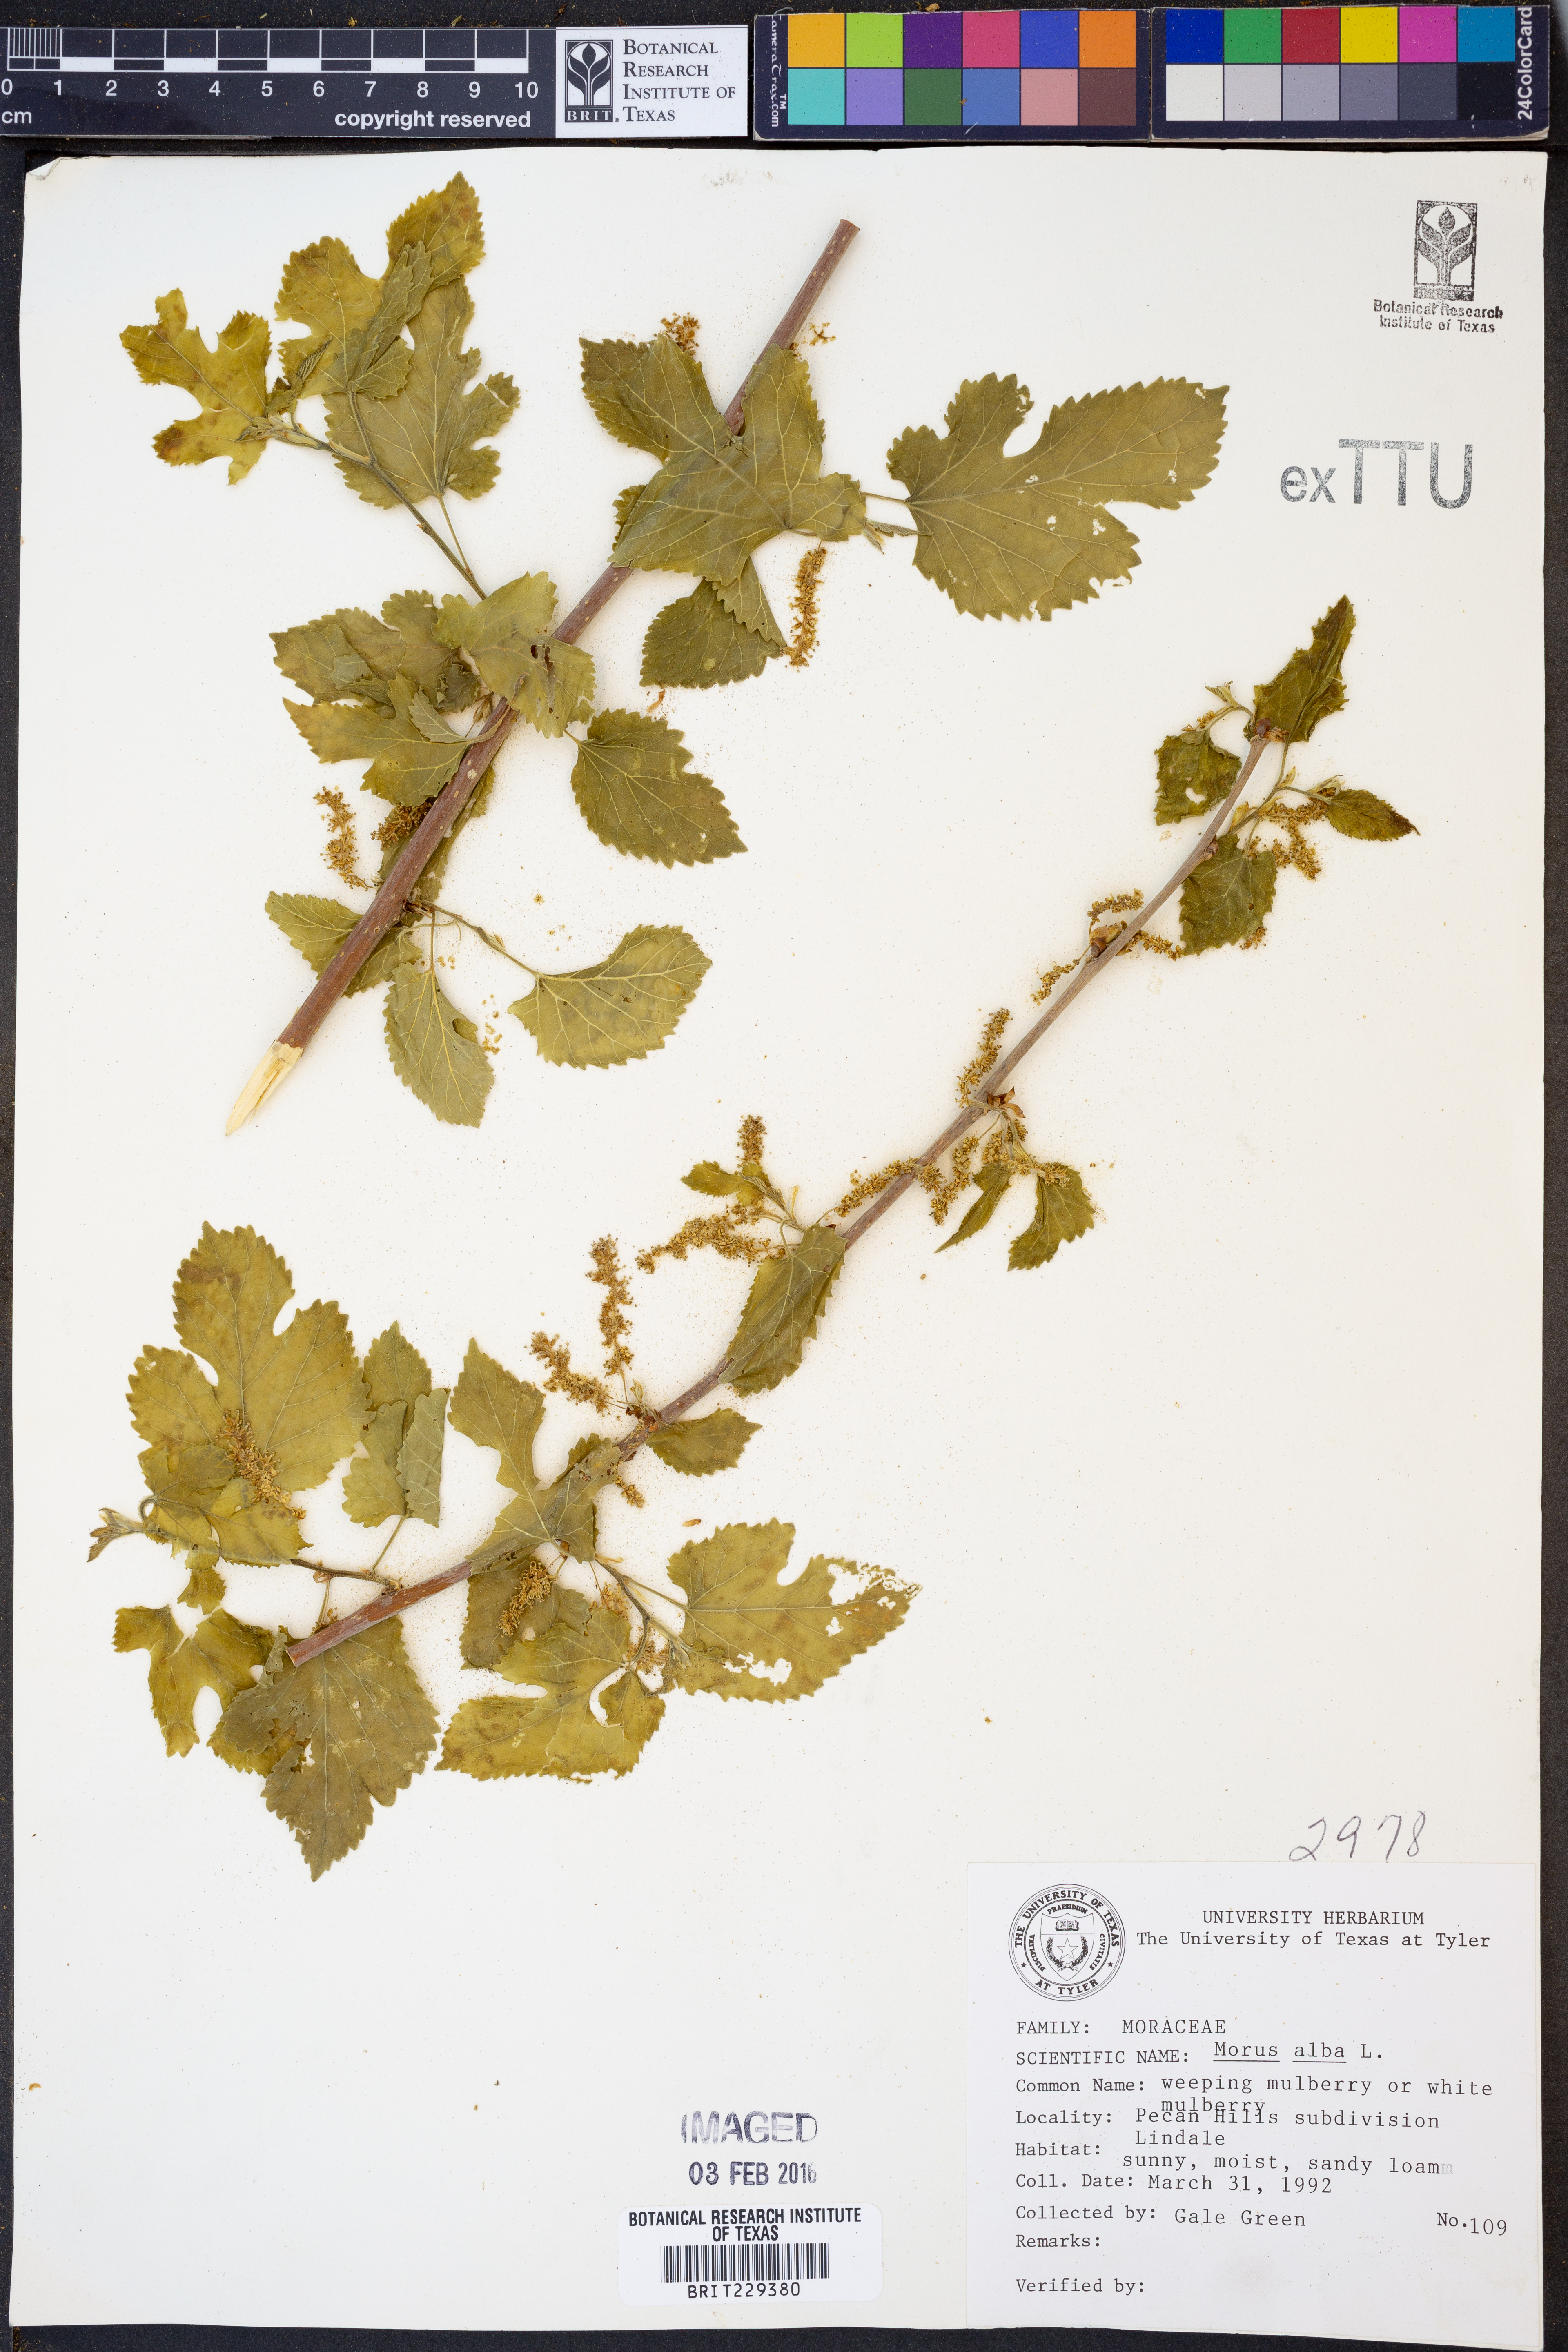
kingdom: Plantae
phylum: Tracheophyta
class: Magnoliopsida
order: Rosales
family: Moraceae
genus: Morus
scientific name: Morus alba
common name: White mulberry
